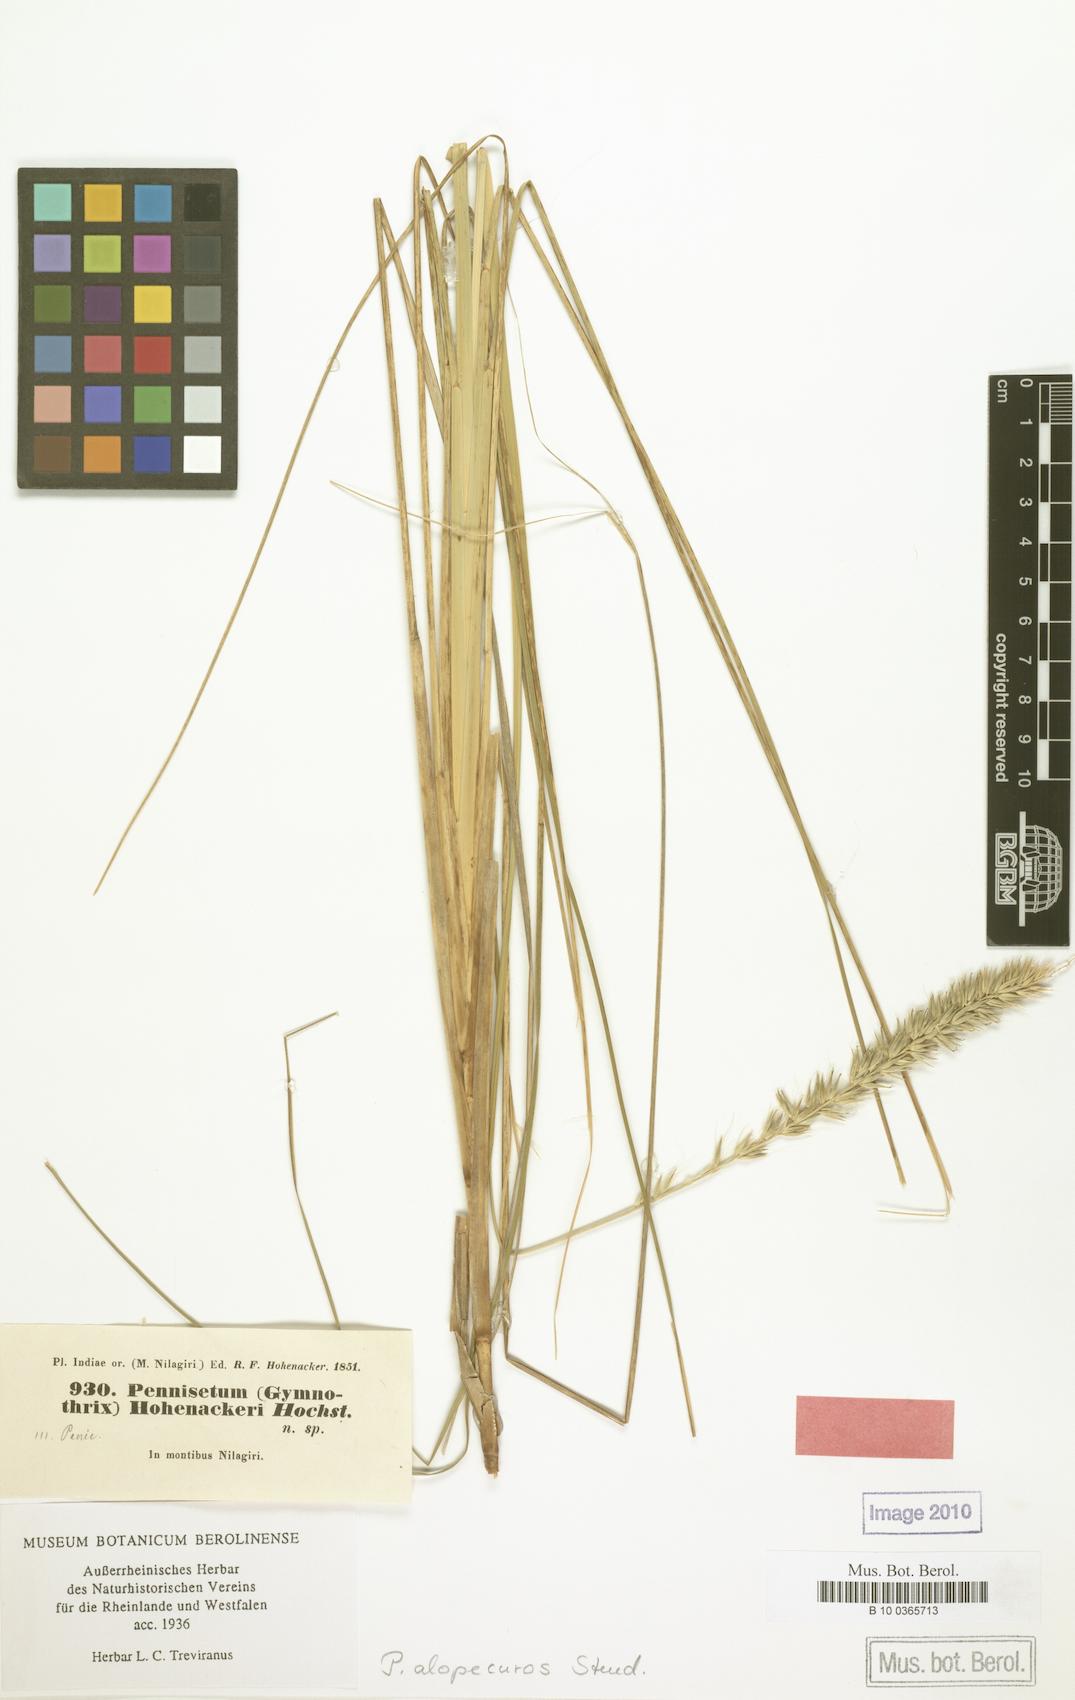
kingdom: Plantae
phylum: Tracheophyta
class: Liliopsida
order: Poales
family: Poaceae
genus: Cenchrus
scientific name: Cenchrus hohenackeri
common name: Moya grass
